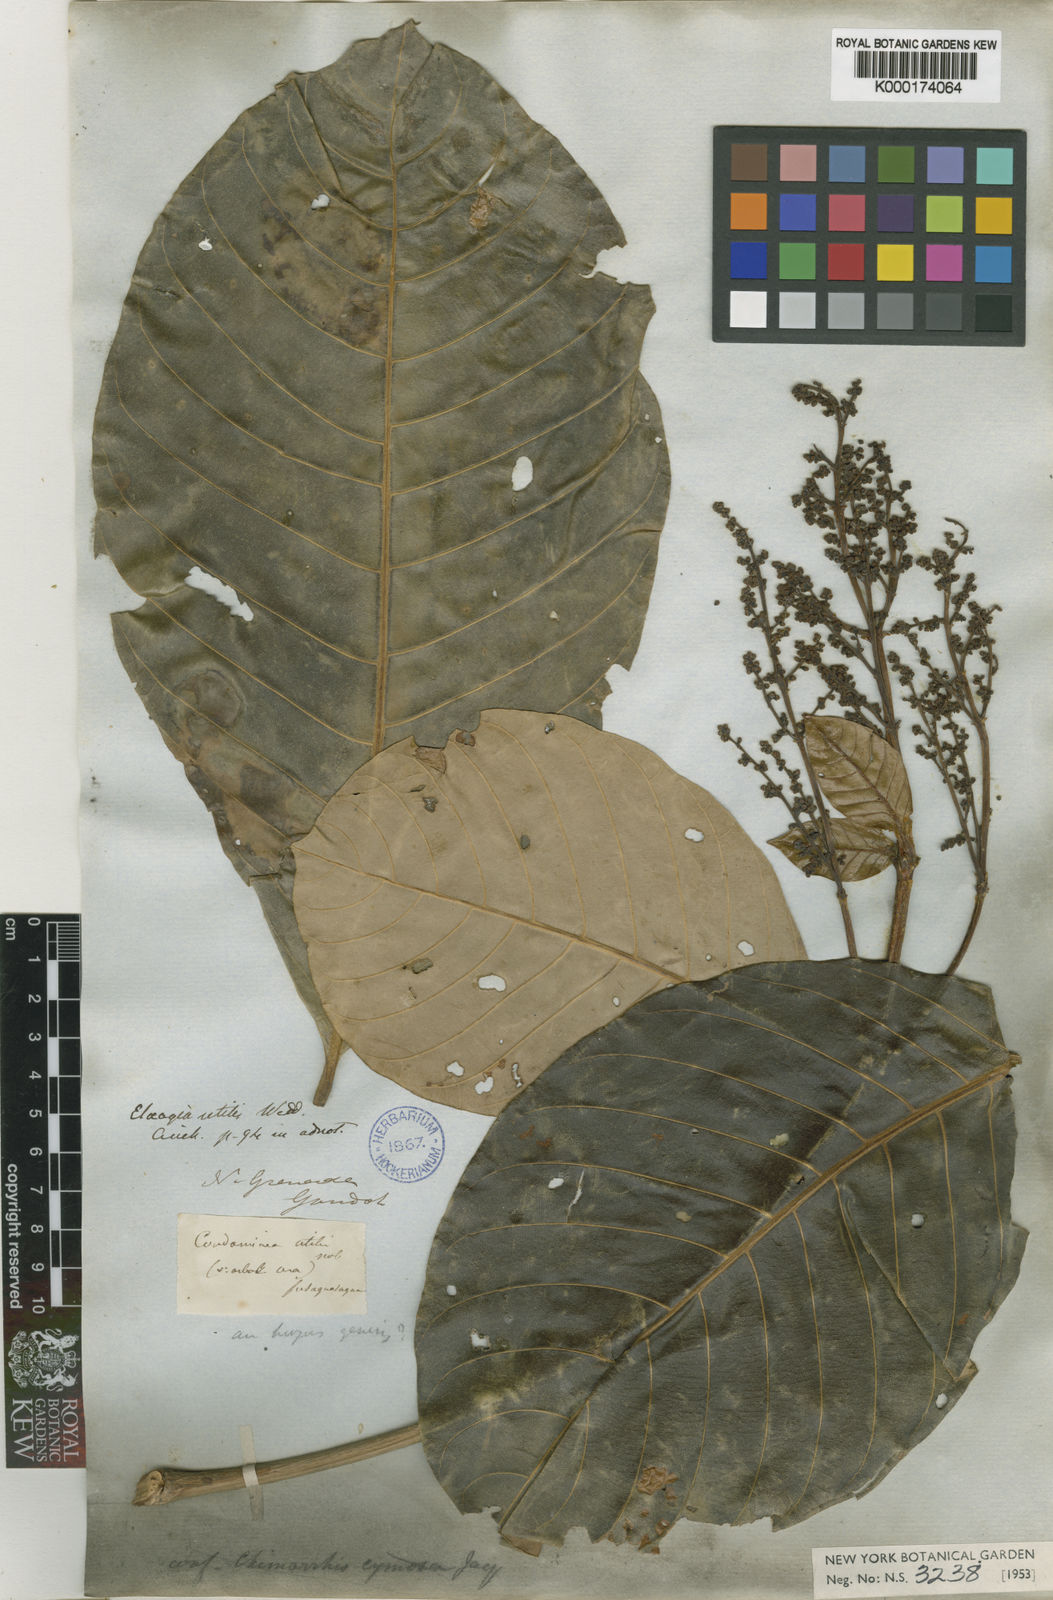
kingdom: Plantae
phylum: Tracheophyta
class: Magnoliopsida
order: Gentianales
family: Rubiaceae
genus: Elaeagia
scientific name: Elaeagia utilis
